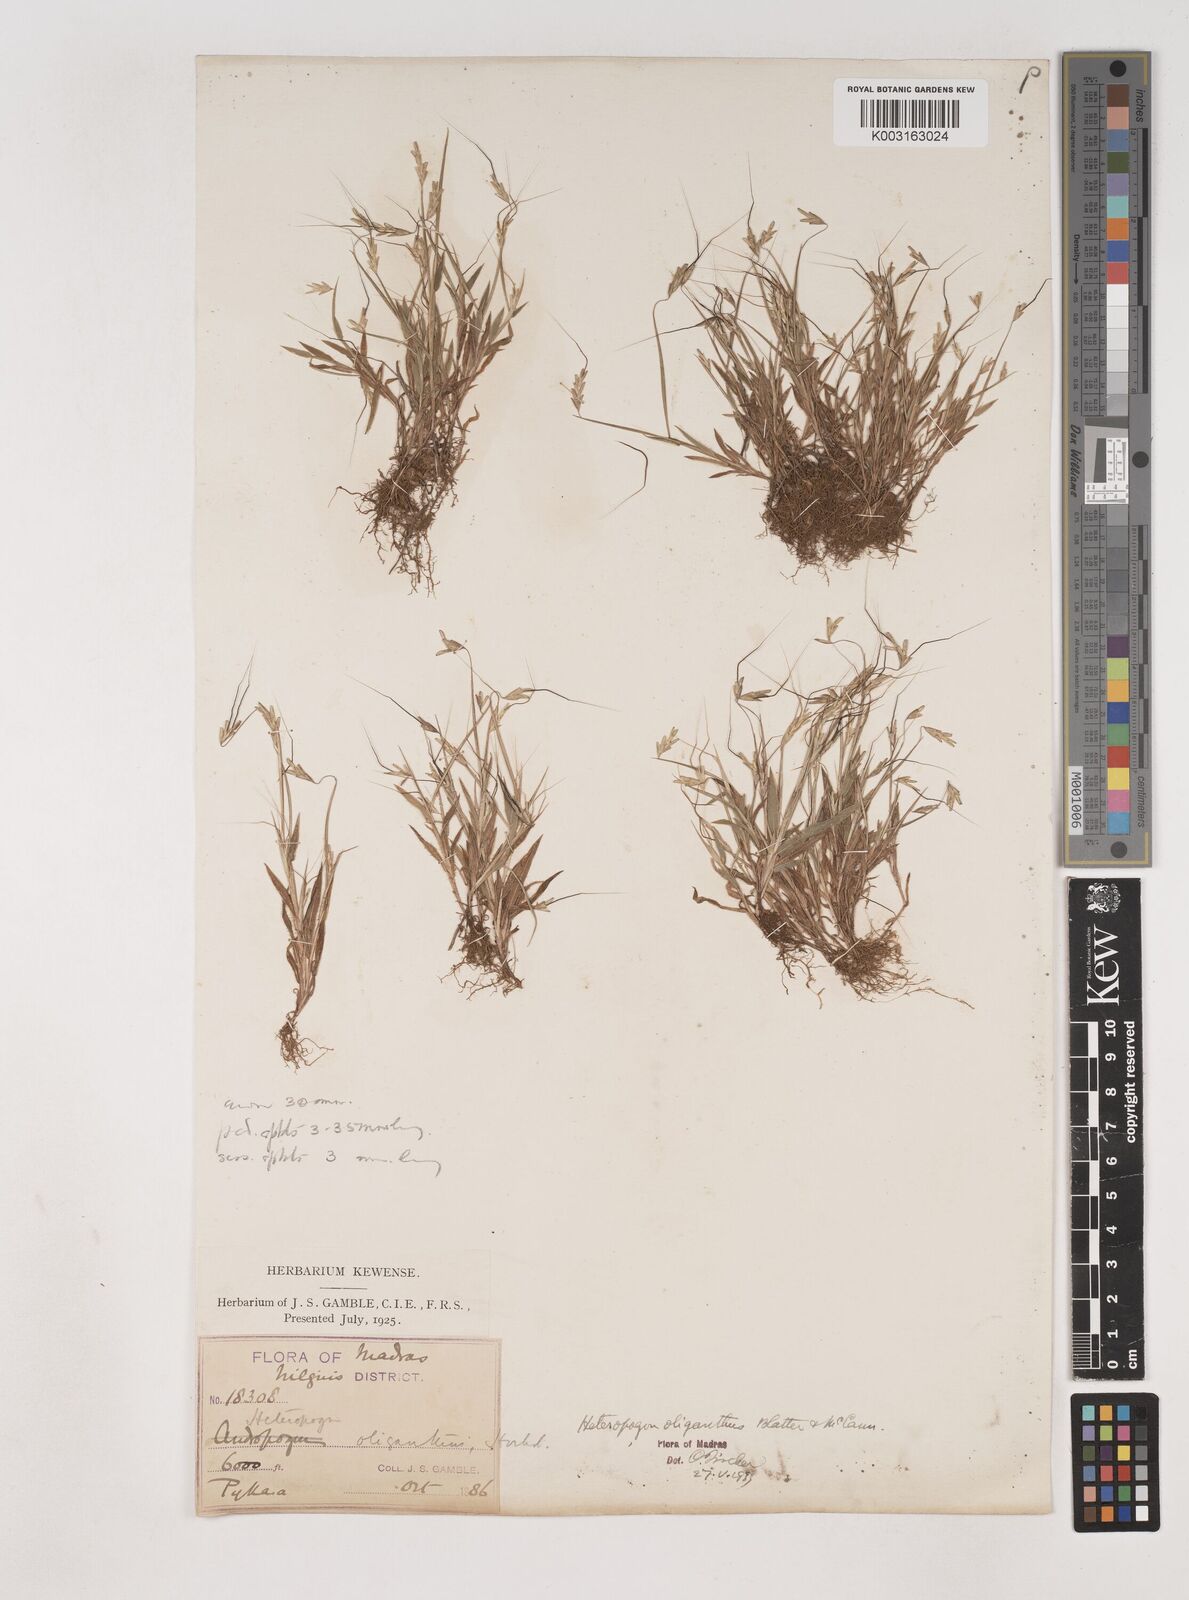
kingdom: Plantae
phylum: Tracheophyta
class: Liliopsida
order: Poales
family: Poaceae
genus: Euclasta
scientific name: Euclasta oligantha
